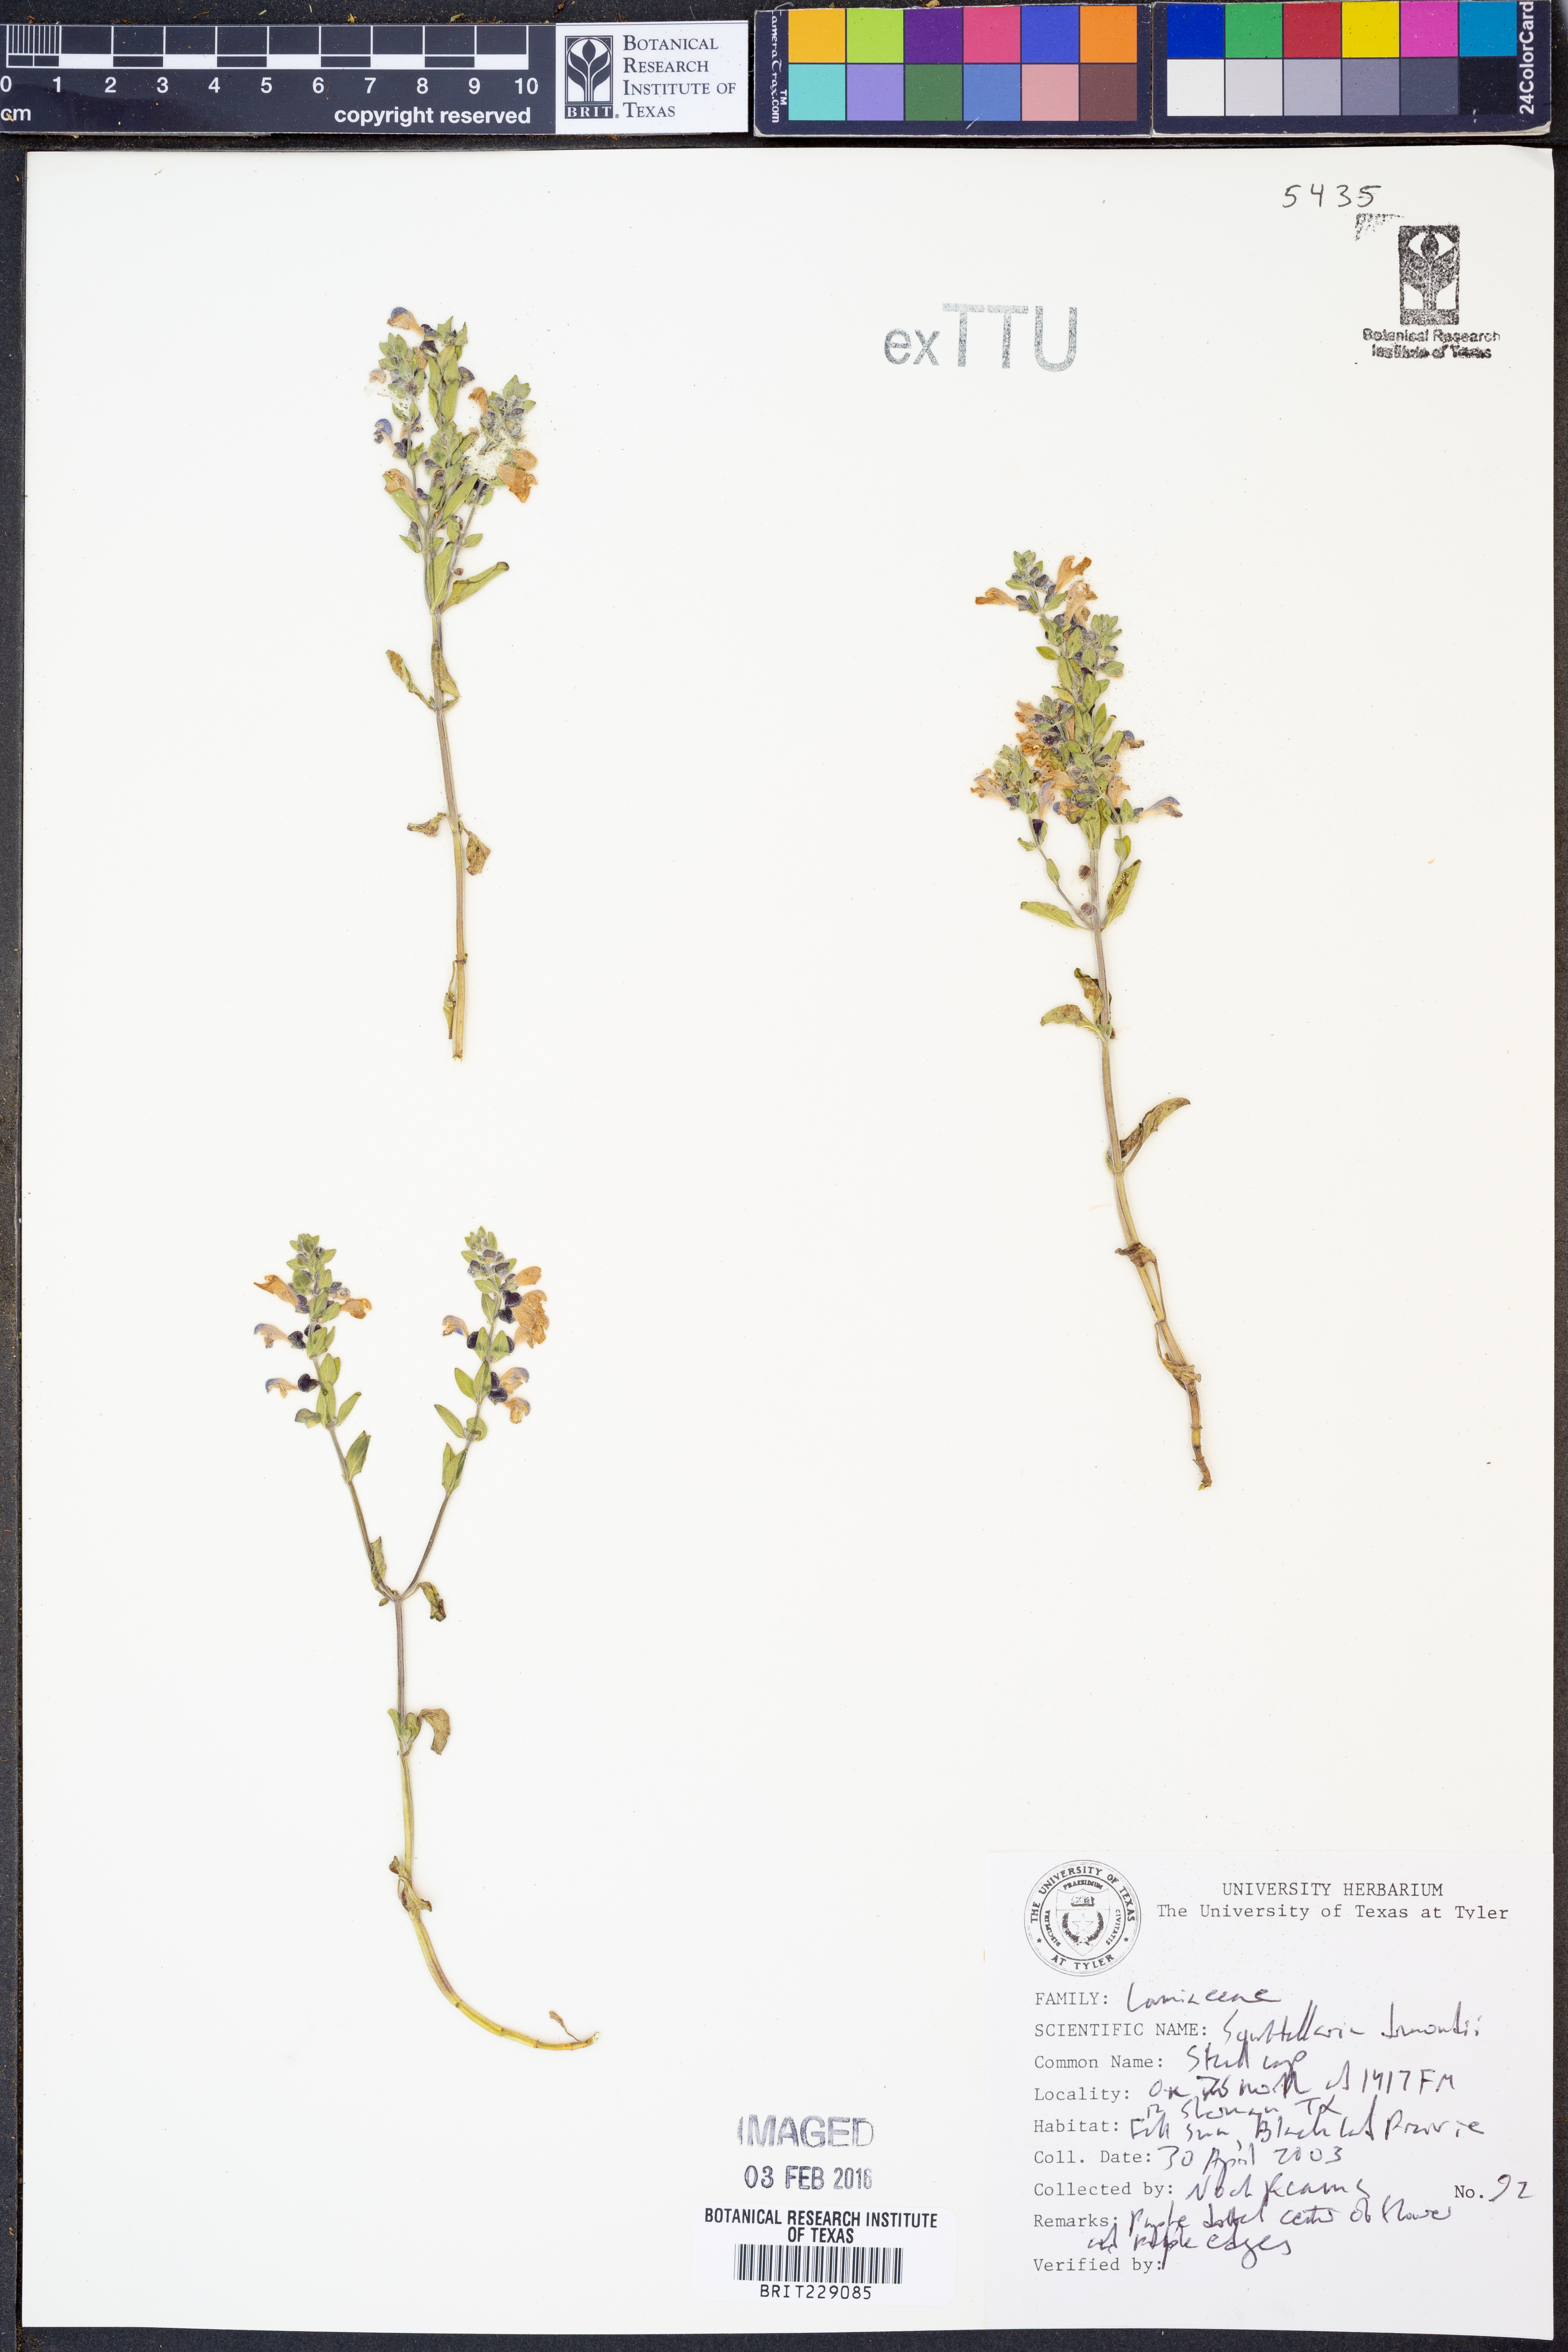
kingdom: Plantae
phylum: Tracheophyta
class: Magnoliopsida
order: Lamiales
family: Lamiaceae
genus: Scutellaria
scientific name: Scutellaria drummondii
